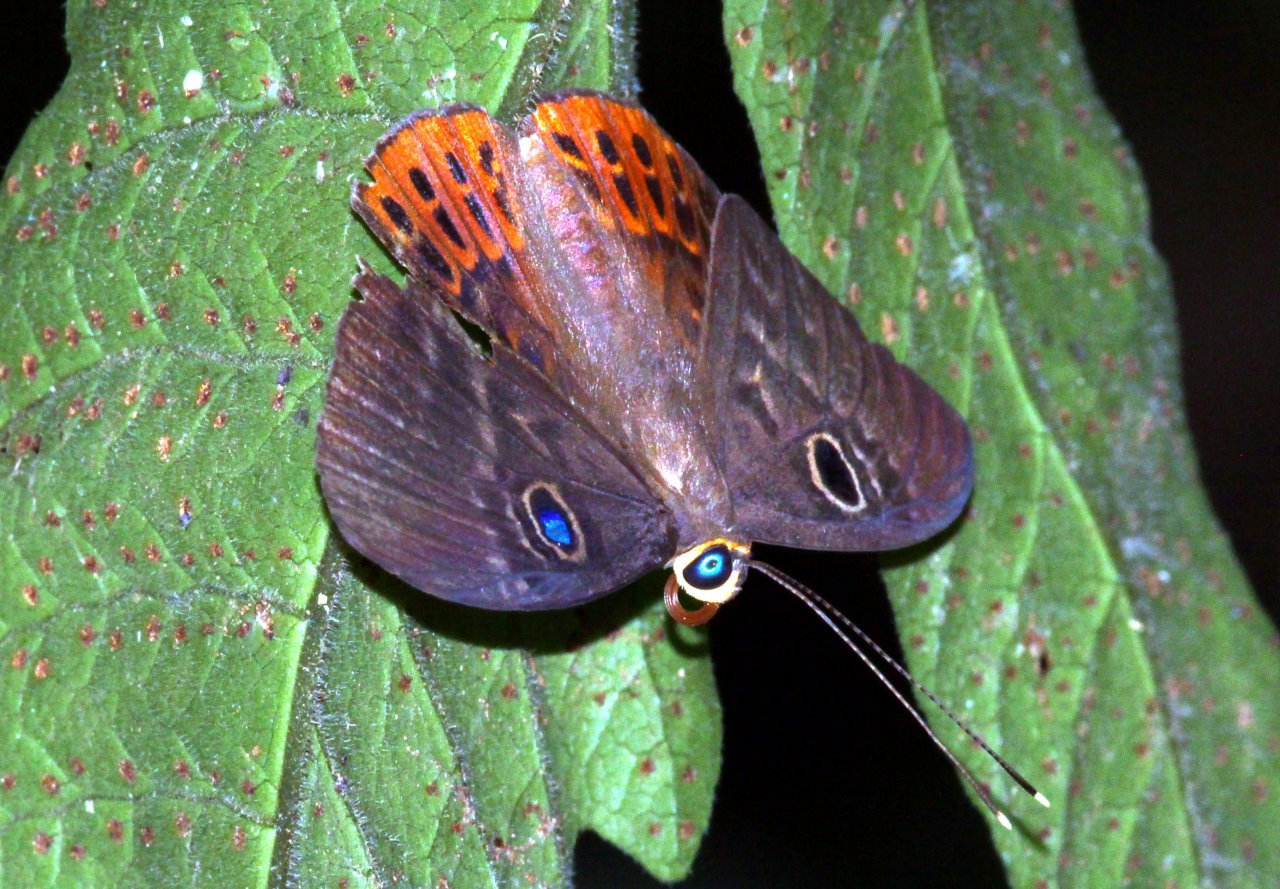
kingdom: Animalia
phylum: Cnidaria
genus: Eurybia
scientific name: Eurybia patrona
